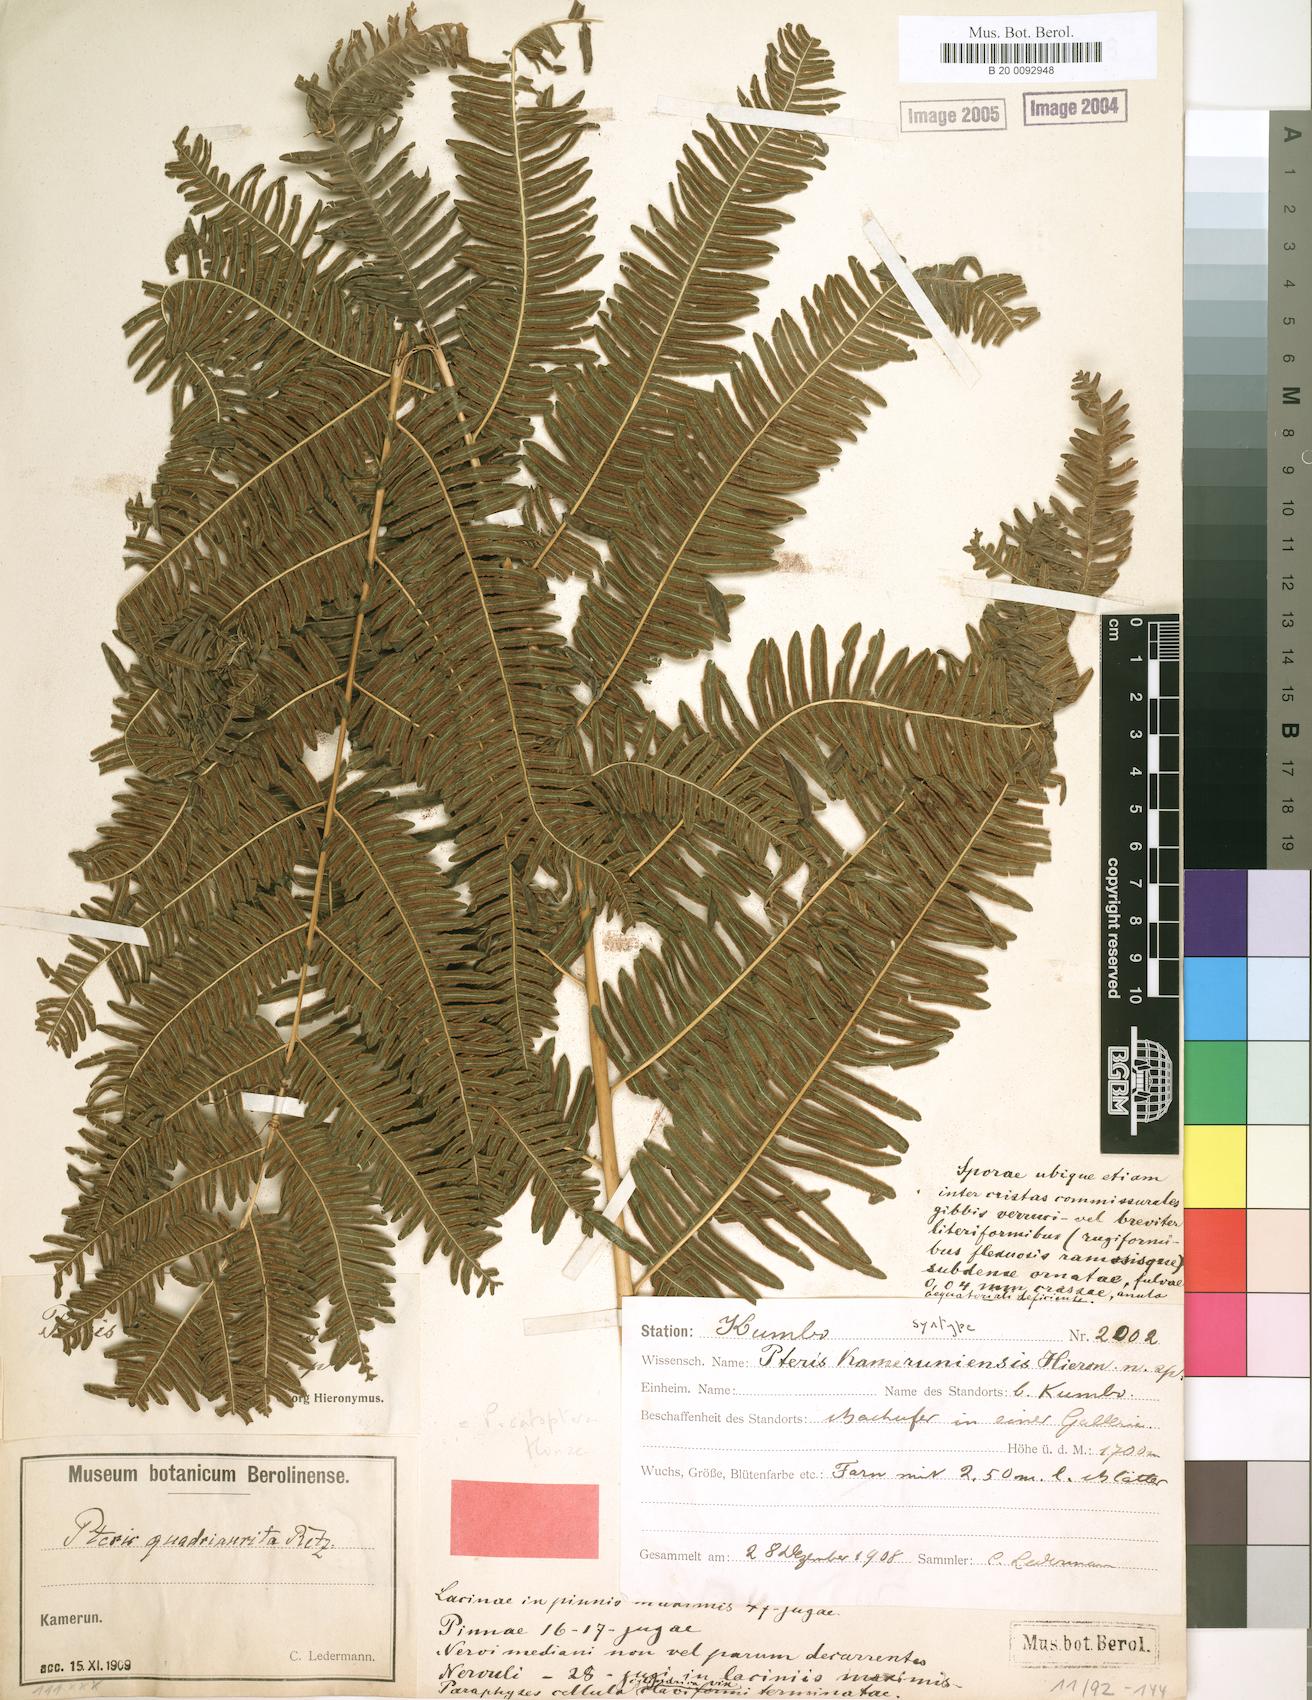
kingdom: Plantae
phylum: Tracheophyta
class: Polypodiopsida
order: Polypodiales
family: Pteridaceae
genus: Pteris
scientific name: Pteris catoptera
